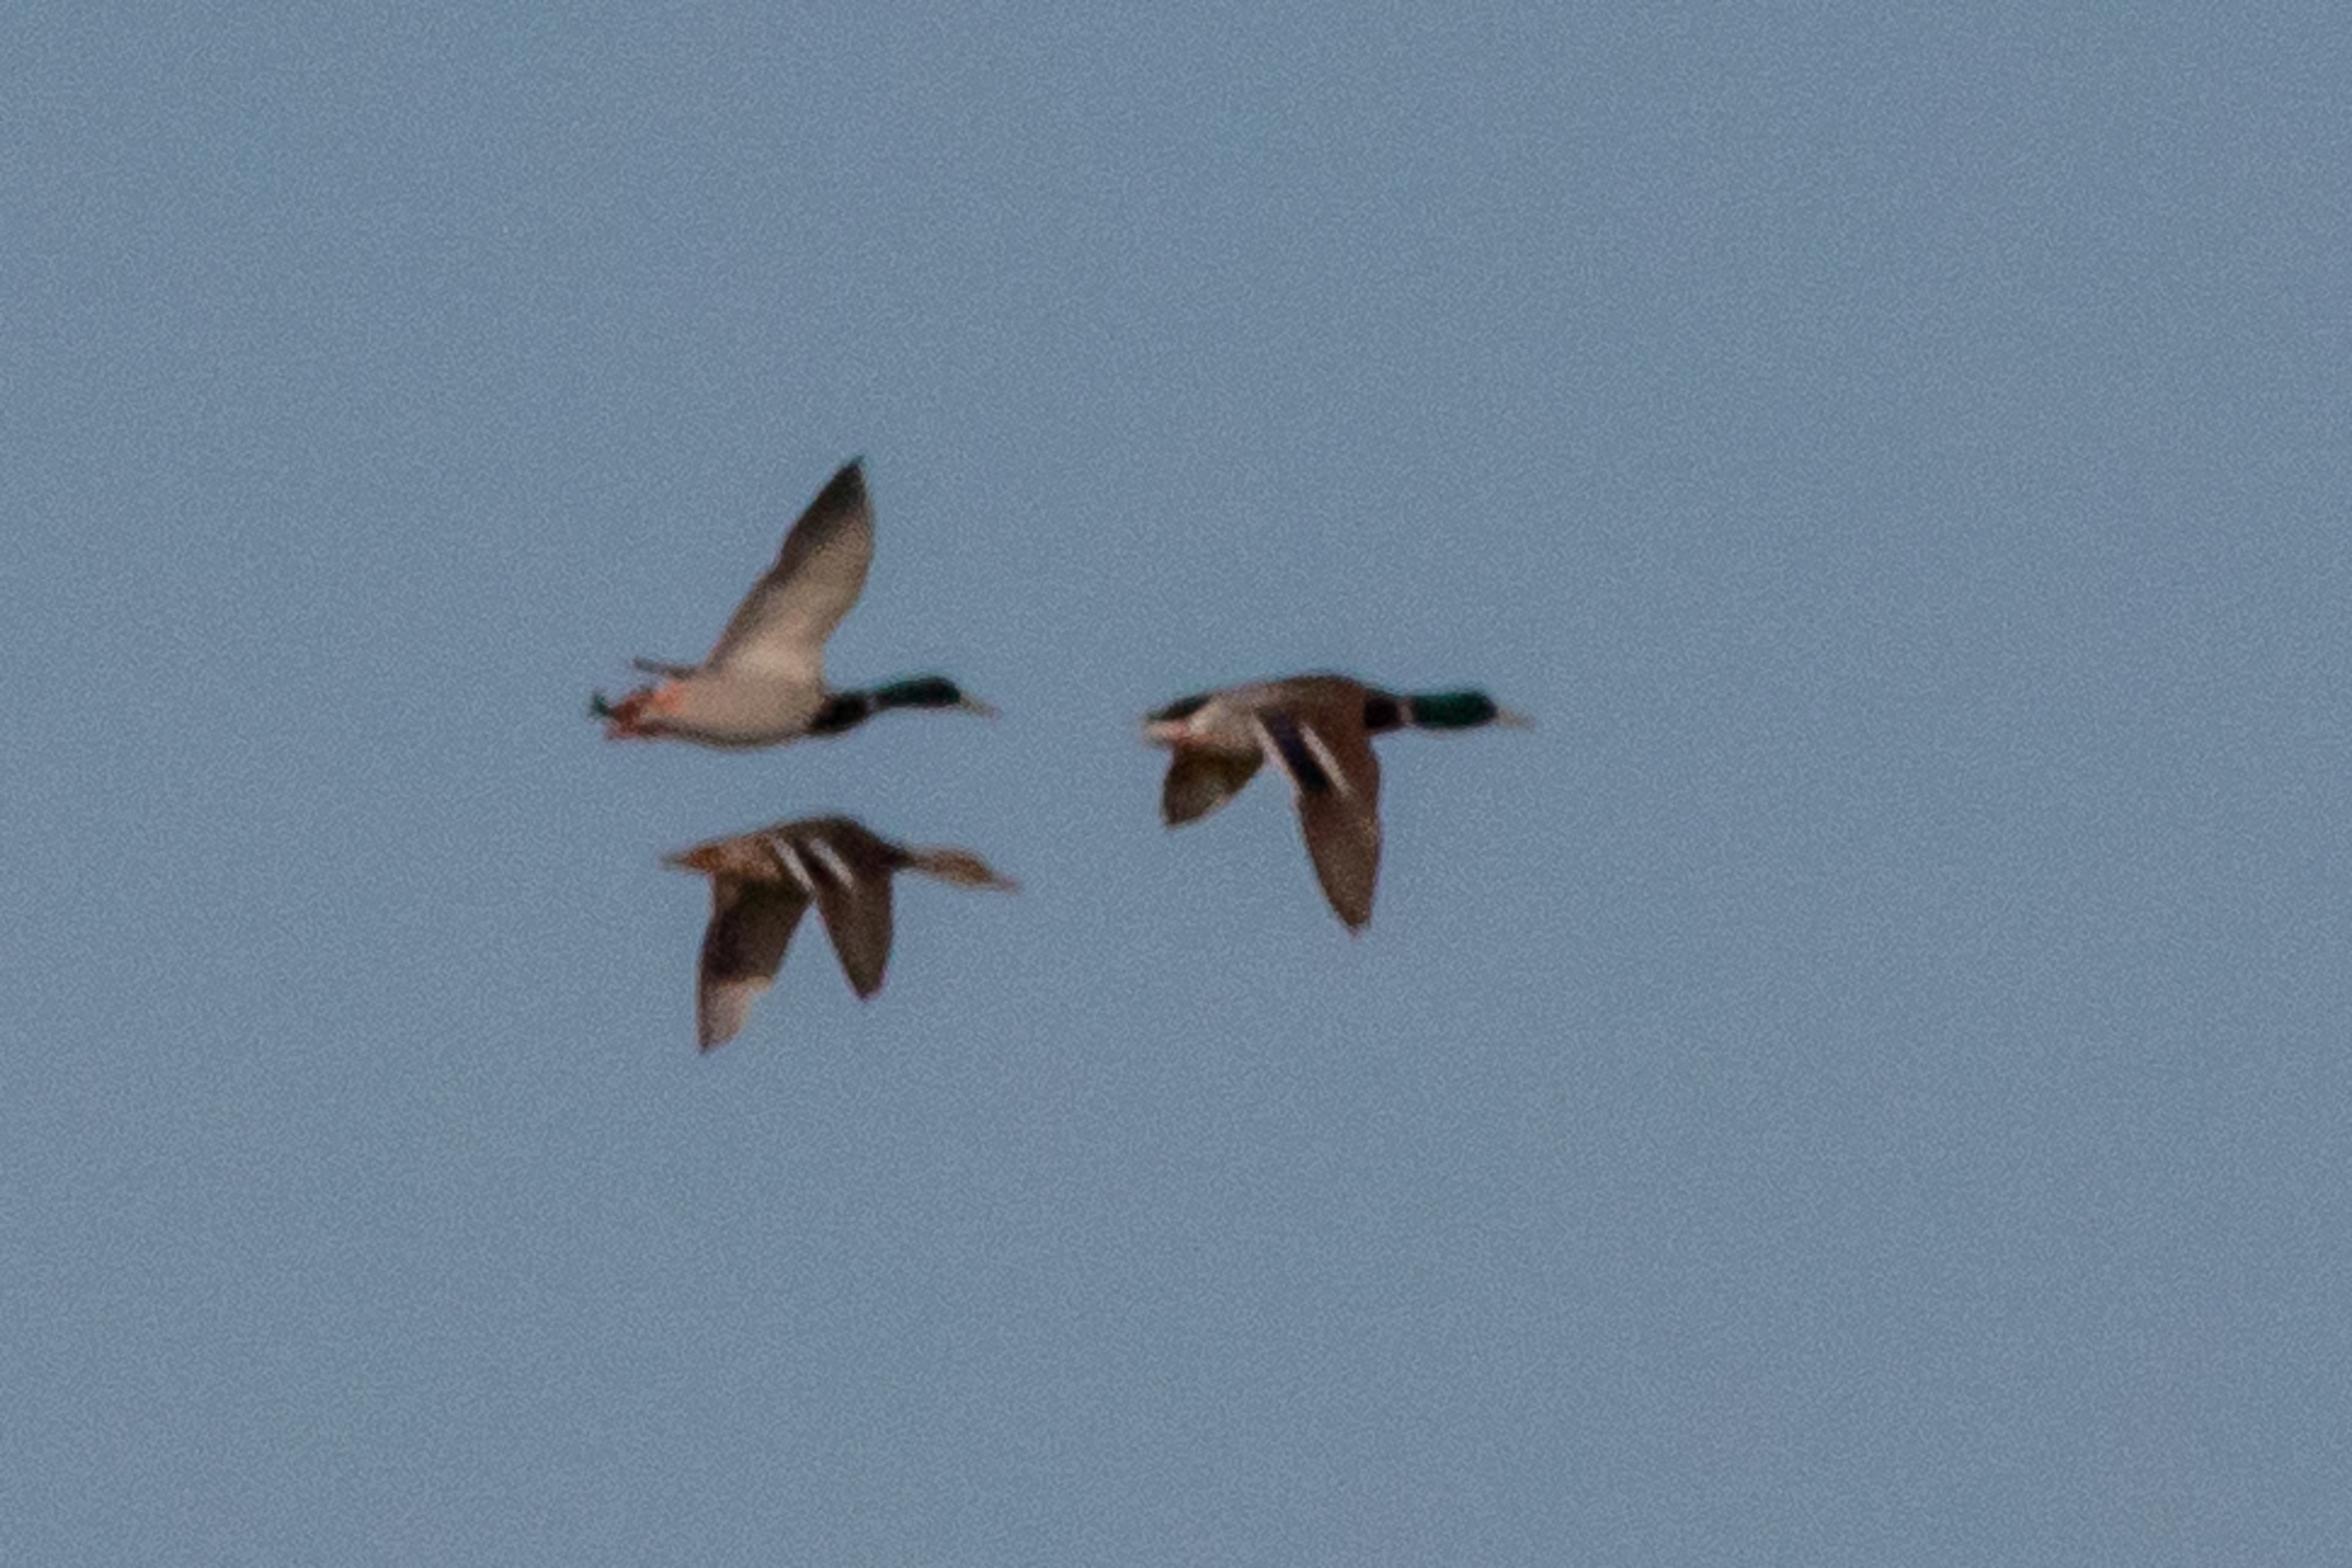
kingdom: Animalia
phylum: Chordata
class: Aves
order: Anseriformes
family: Anatidae
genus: Anas
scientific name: Anas platyrhynchos
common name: Gråand
